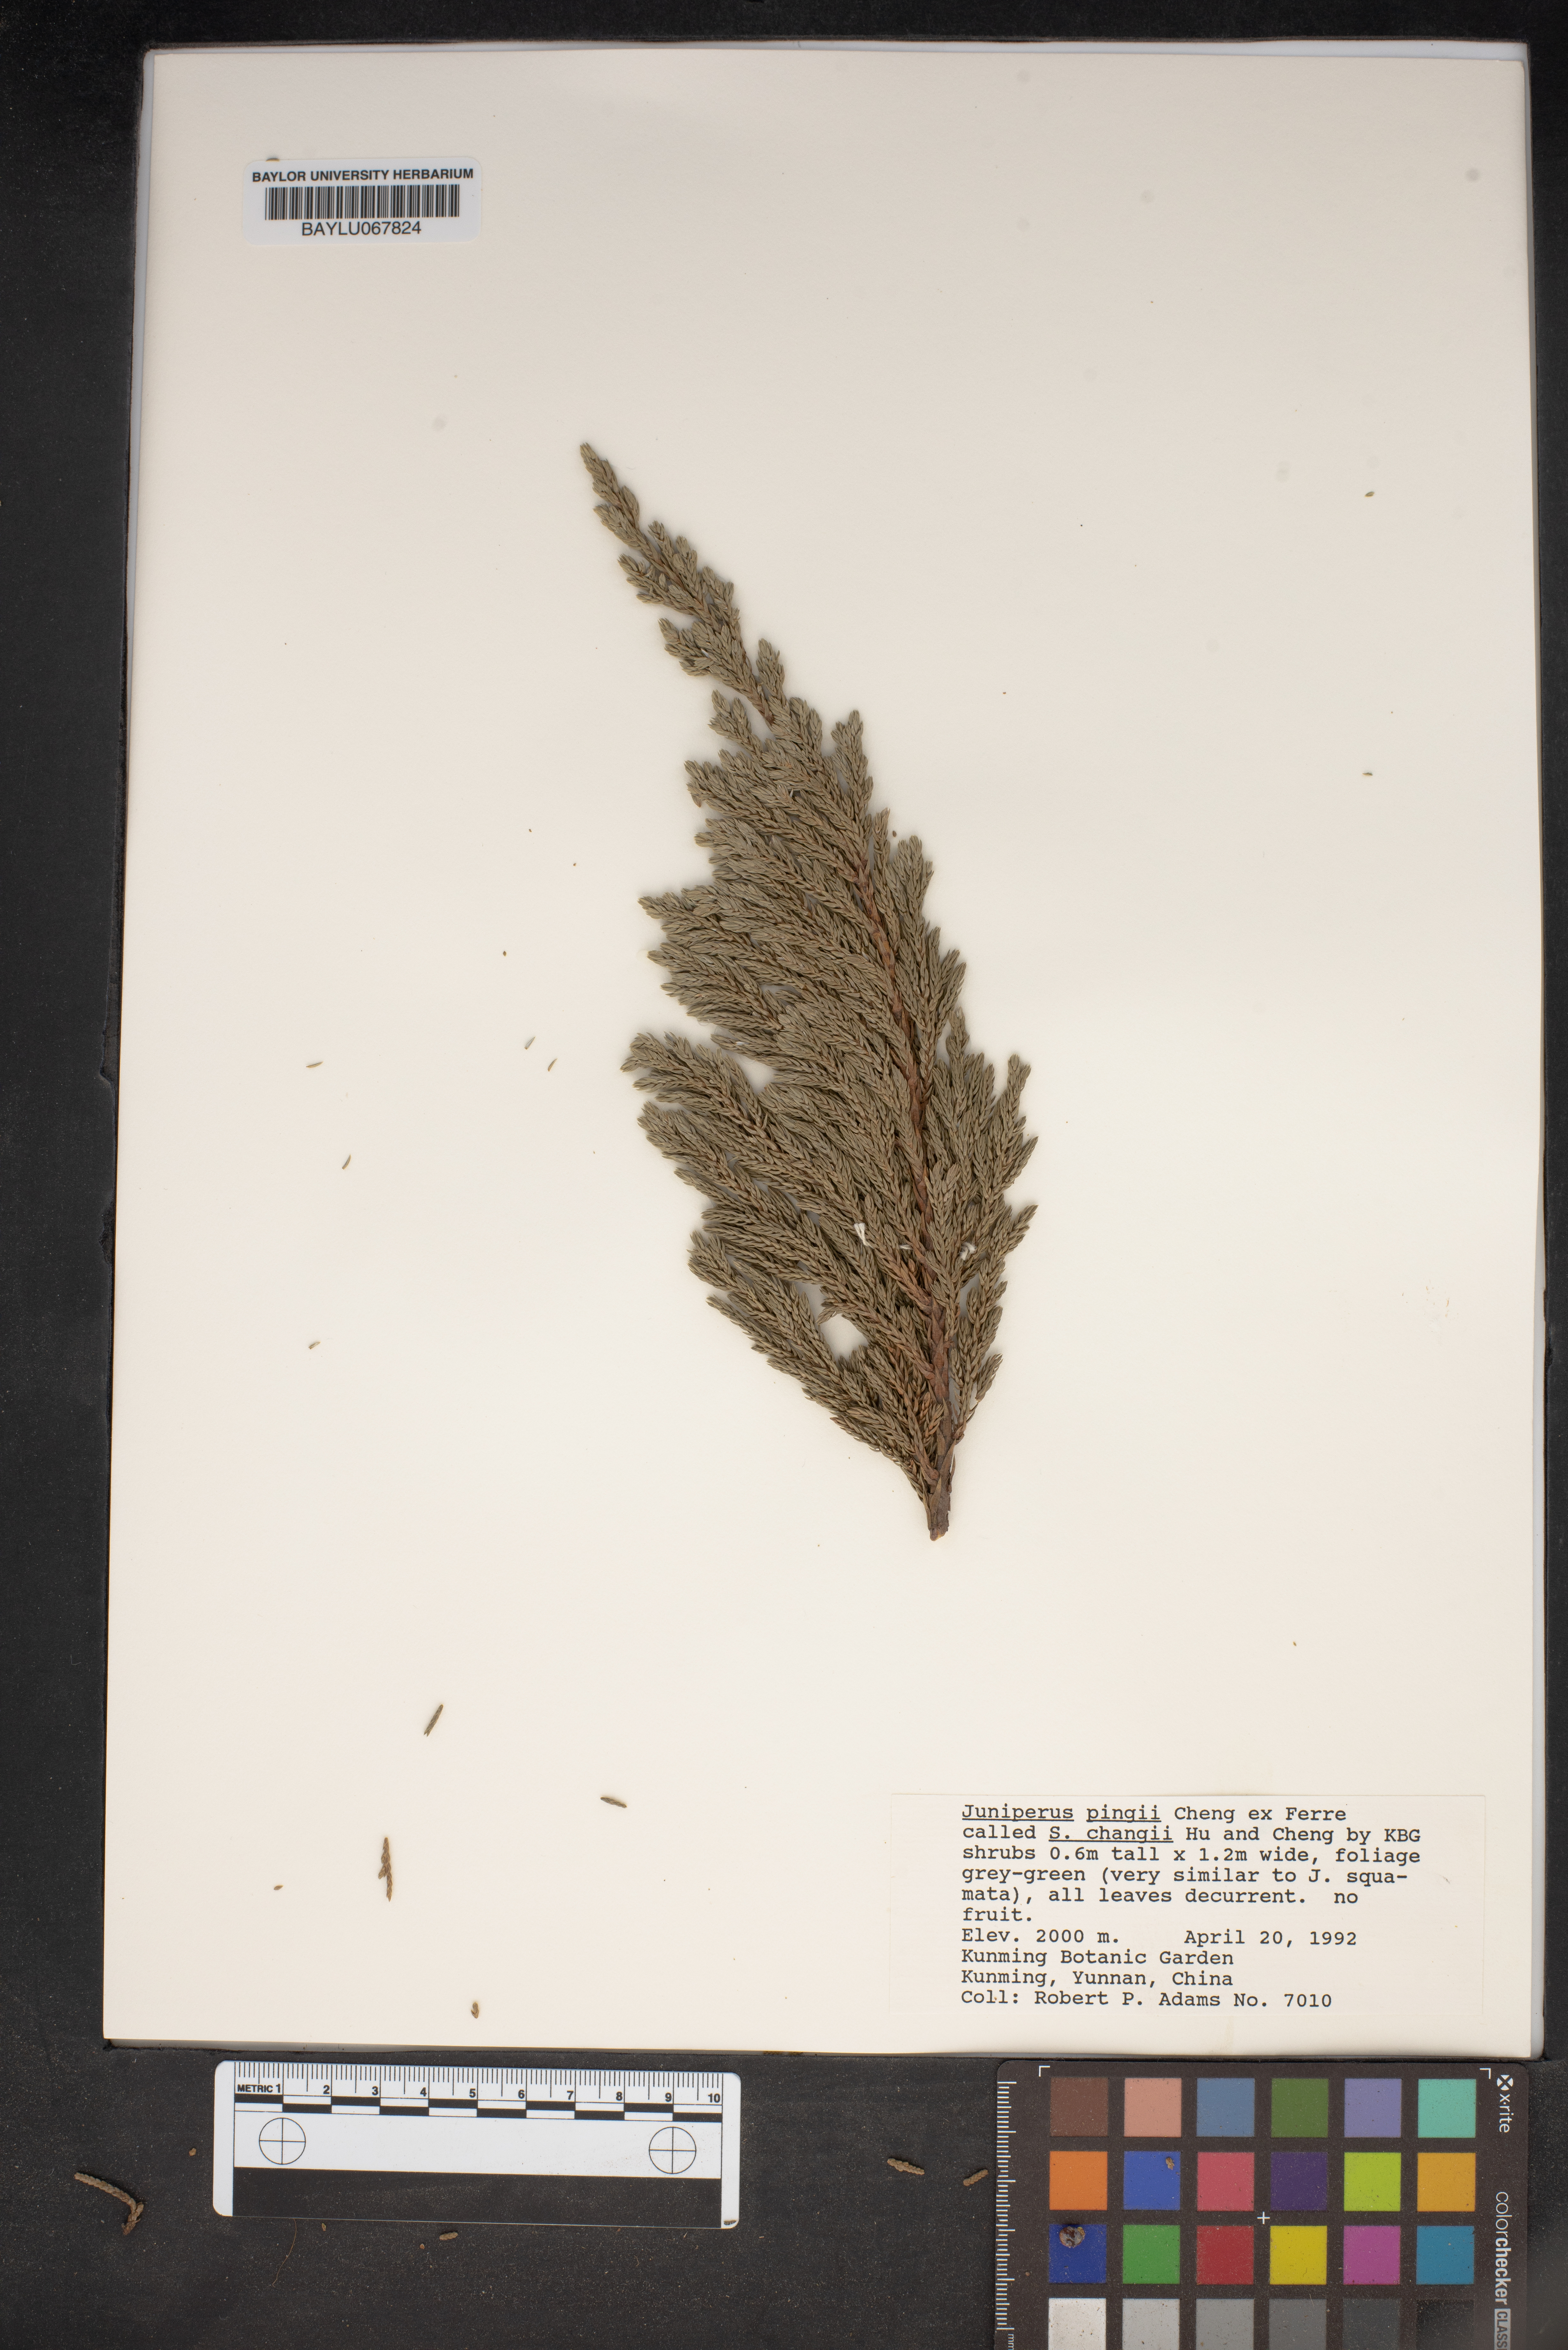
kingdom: Plantae
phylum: Tracheophyta
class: Pinopsida
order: Pinales
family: Cupressaceae
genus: Juniperus
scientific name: Juniperus pingii
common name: Ping's juniper
